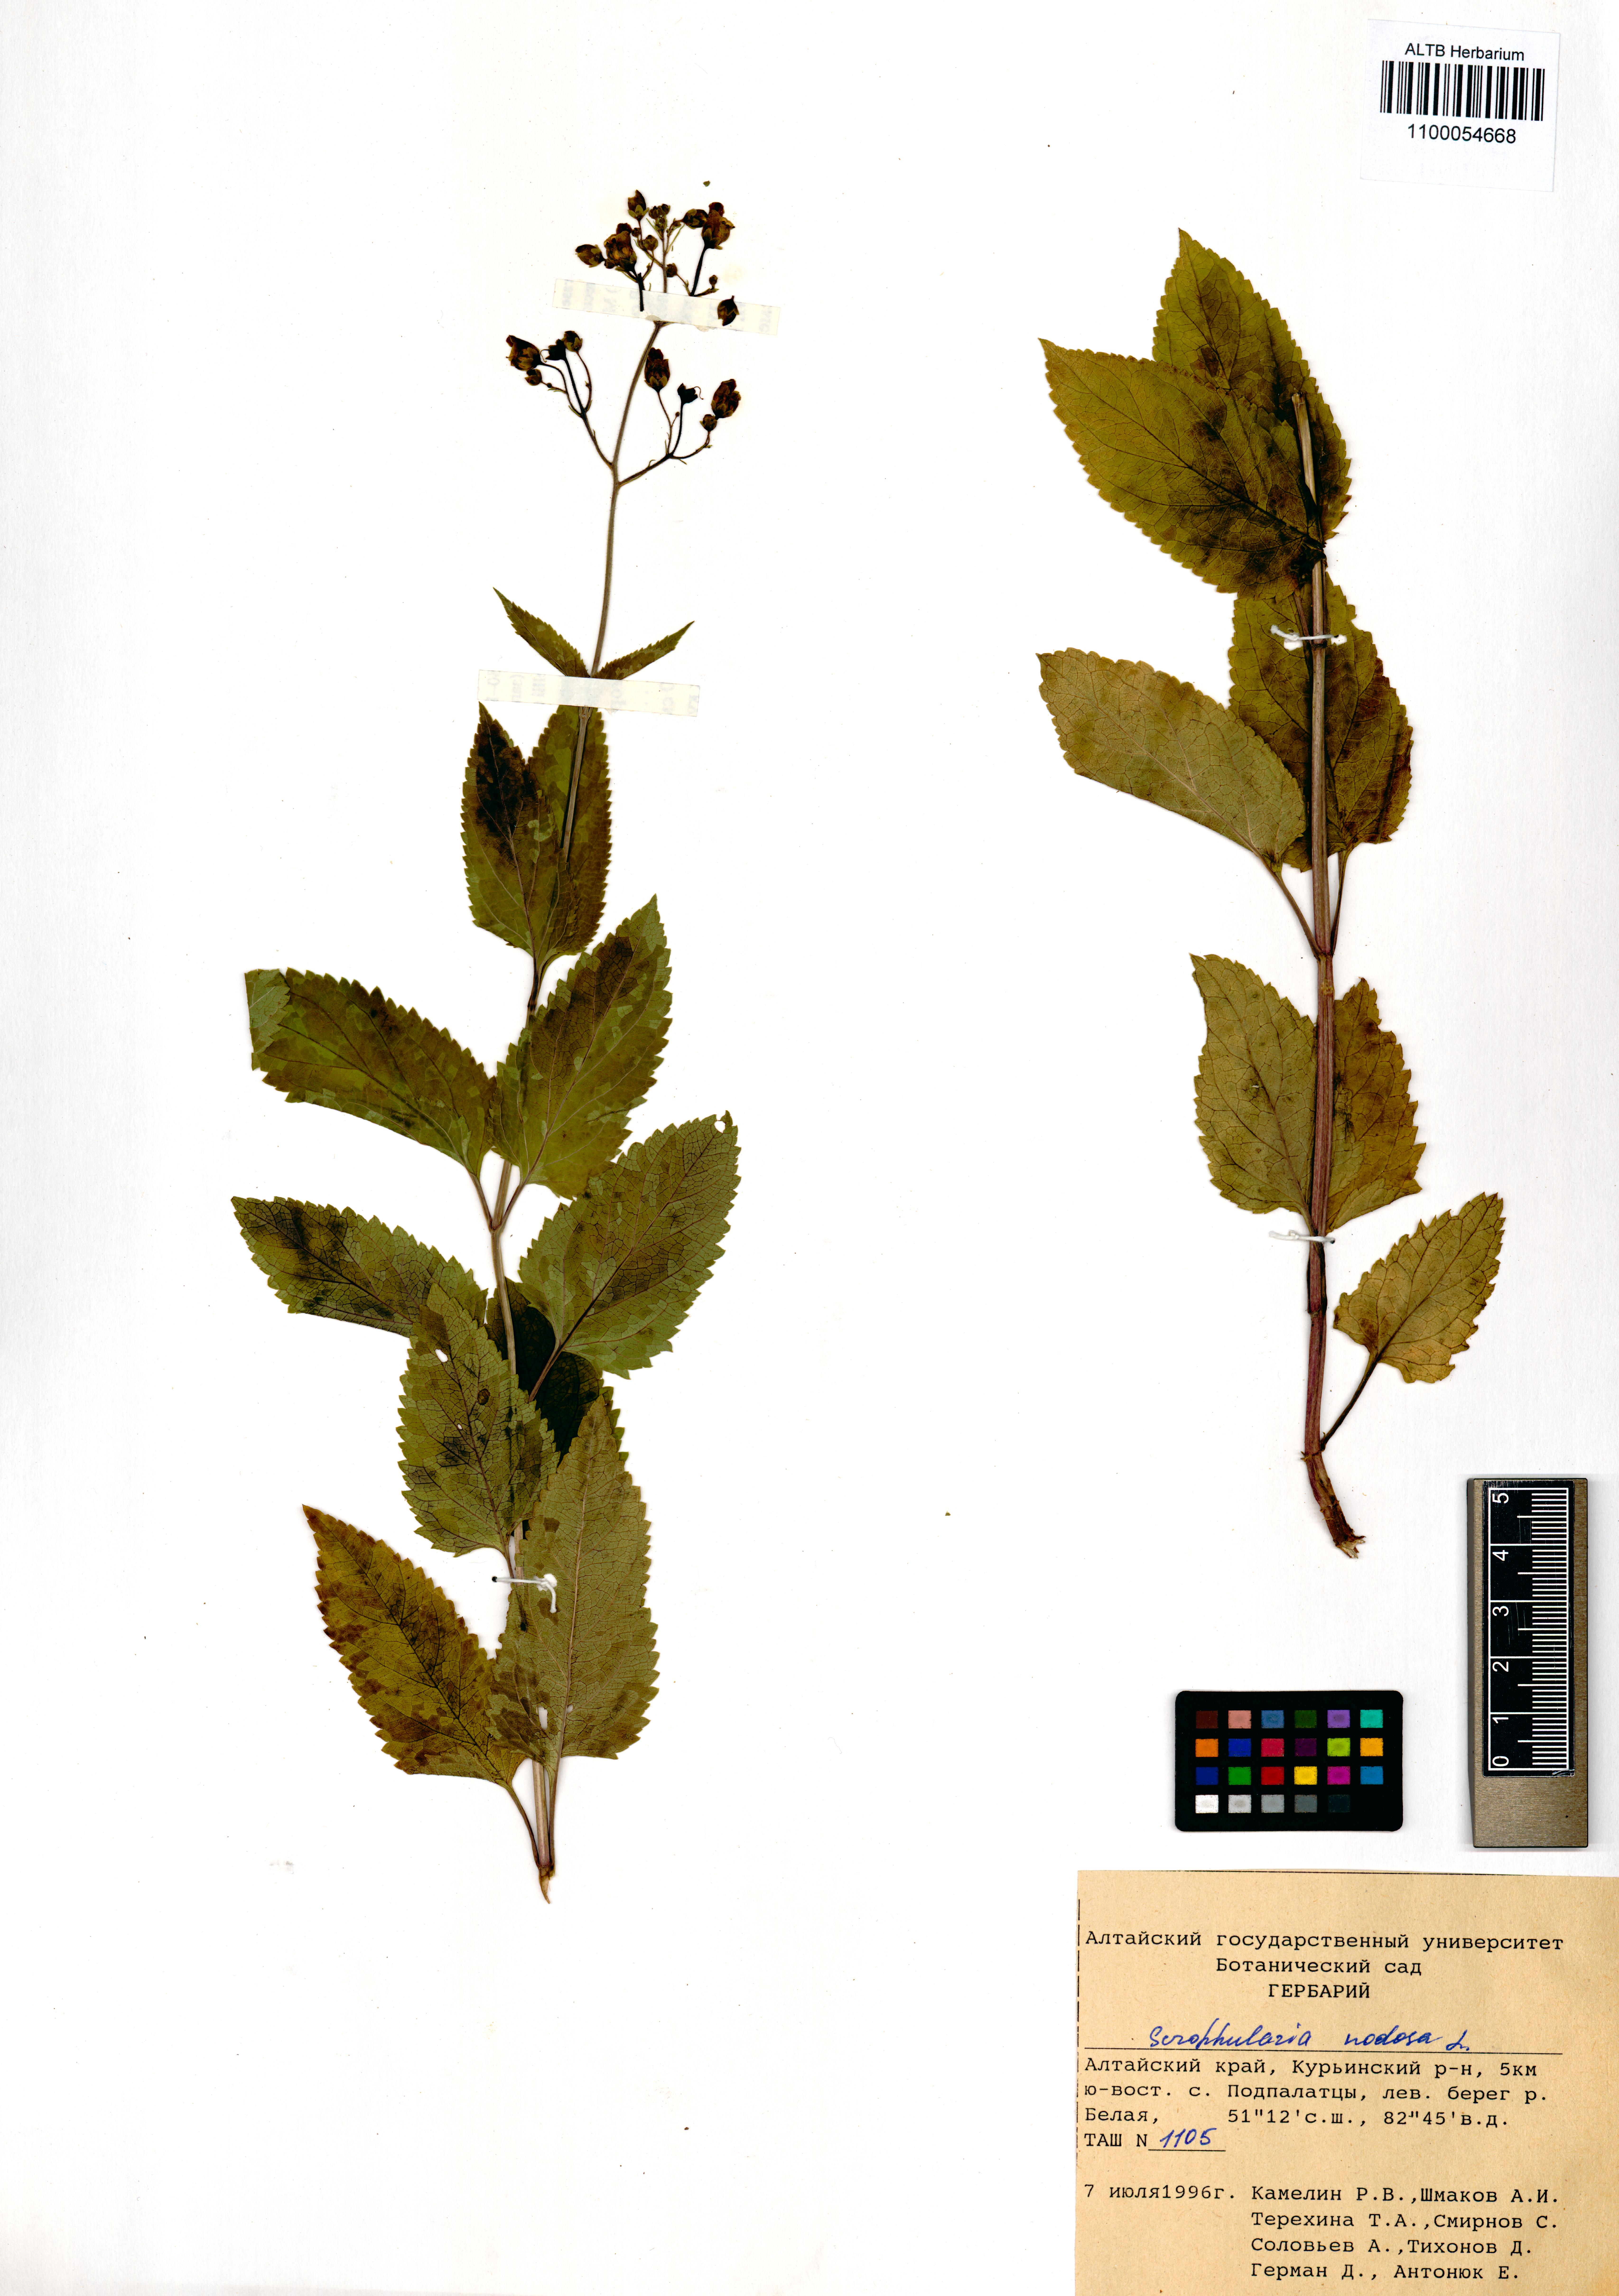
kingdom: Plantae
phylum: Tracheophyta
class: Magnoliopsida
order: Lamiales
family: Scrophulariaceae
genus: Scrophularia
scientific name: Scrophularia nodosa
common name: Common figwort
